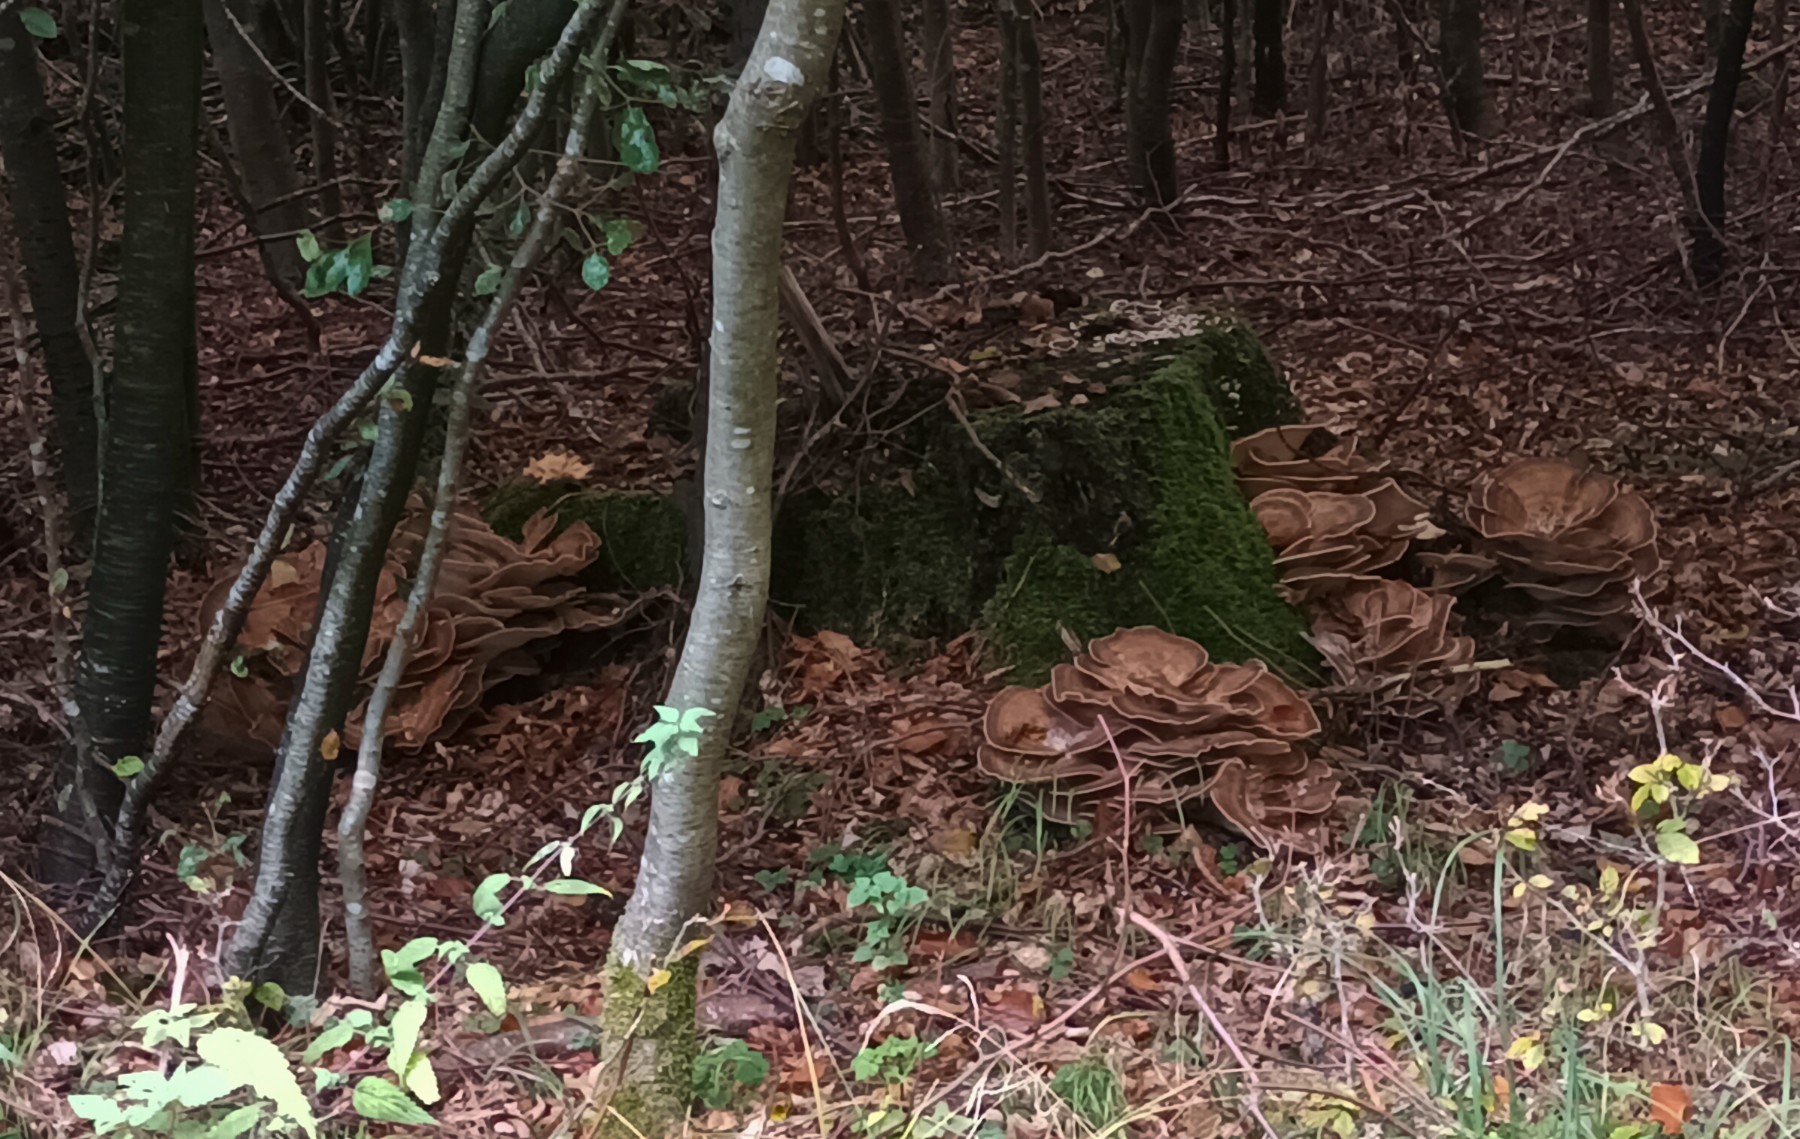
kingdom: Fungi
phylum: Basidiomycota
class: Agaricomycetes
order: Polyporales
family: Meripilaceae
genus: Meripilus
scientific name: Meripilus giganteus
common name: kæmpeporesvamp
